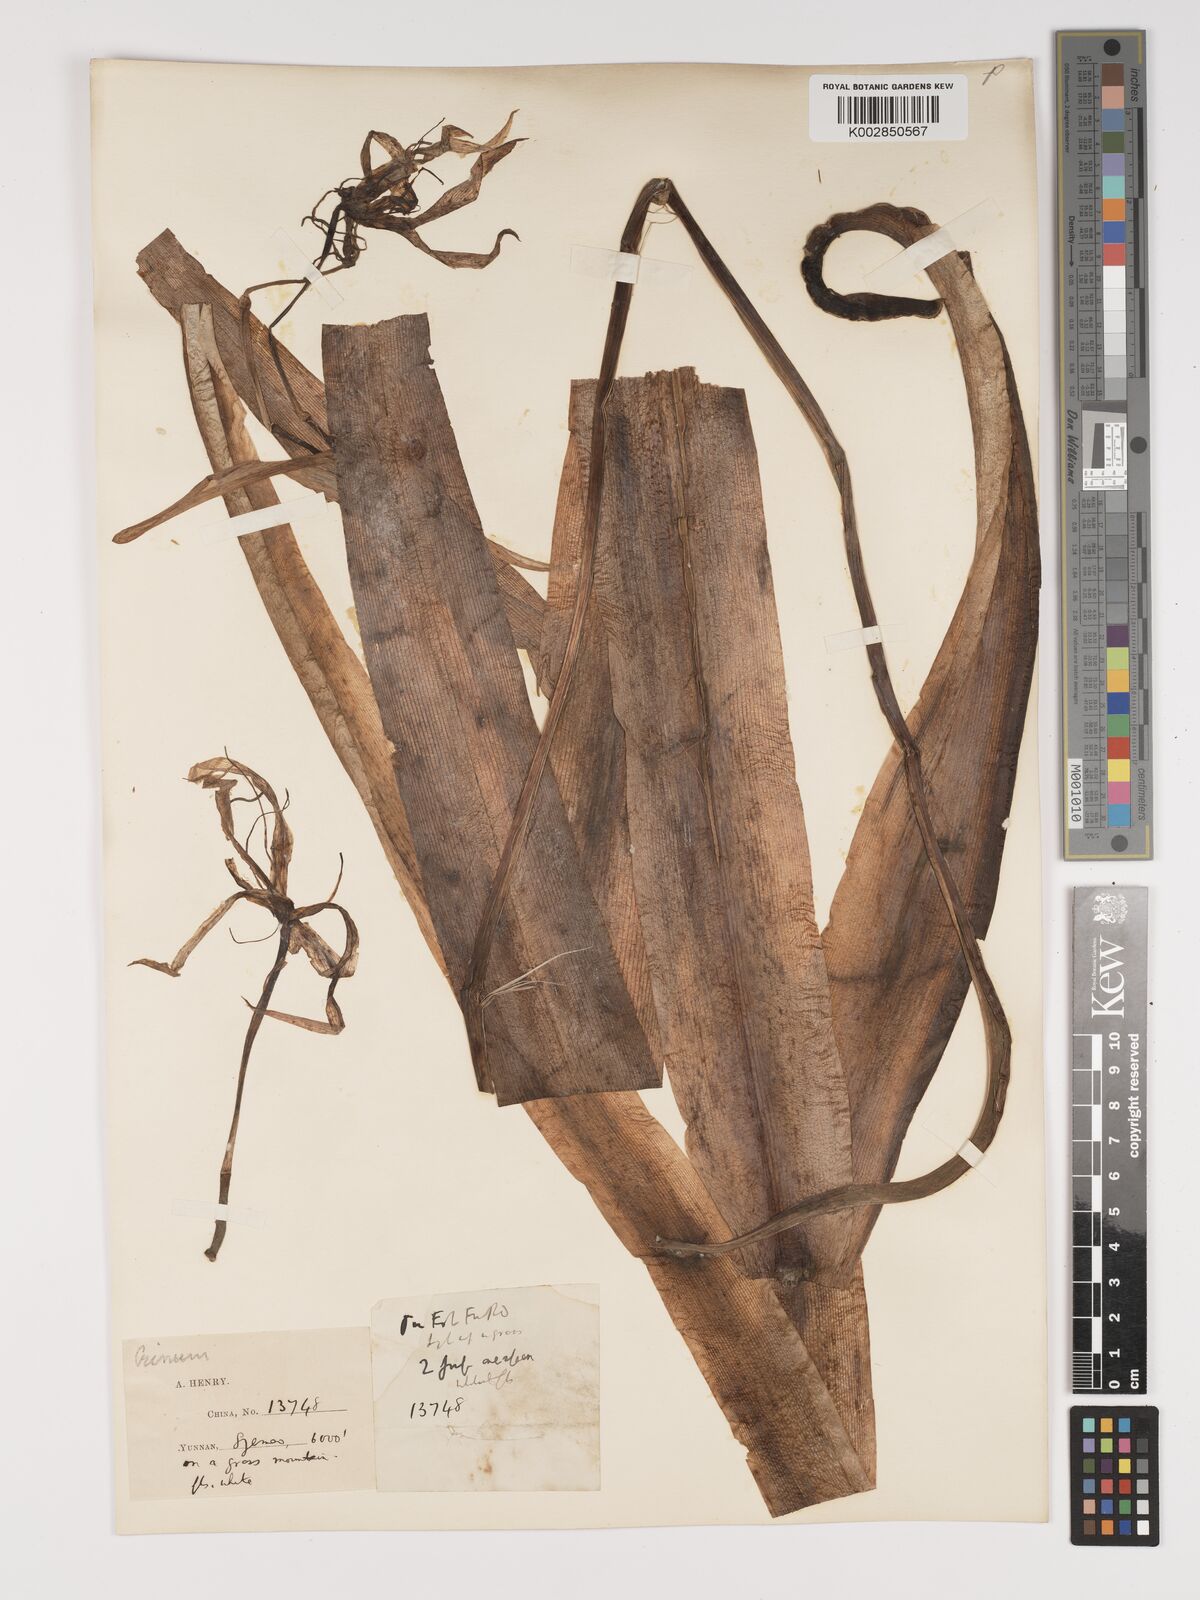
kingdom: Plantae
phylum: Tracheophyta
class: Liliopsida
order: Asparagales
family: Amaryllidaceae
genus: Crinum
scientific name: Crinum asiaticum
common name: Poisonbulb
